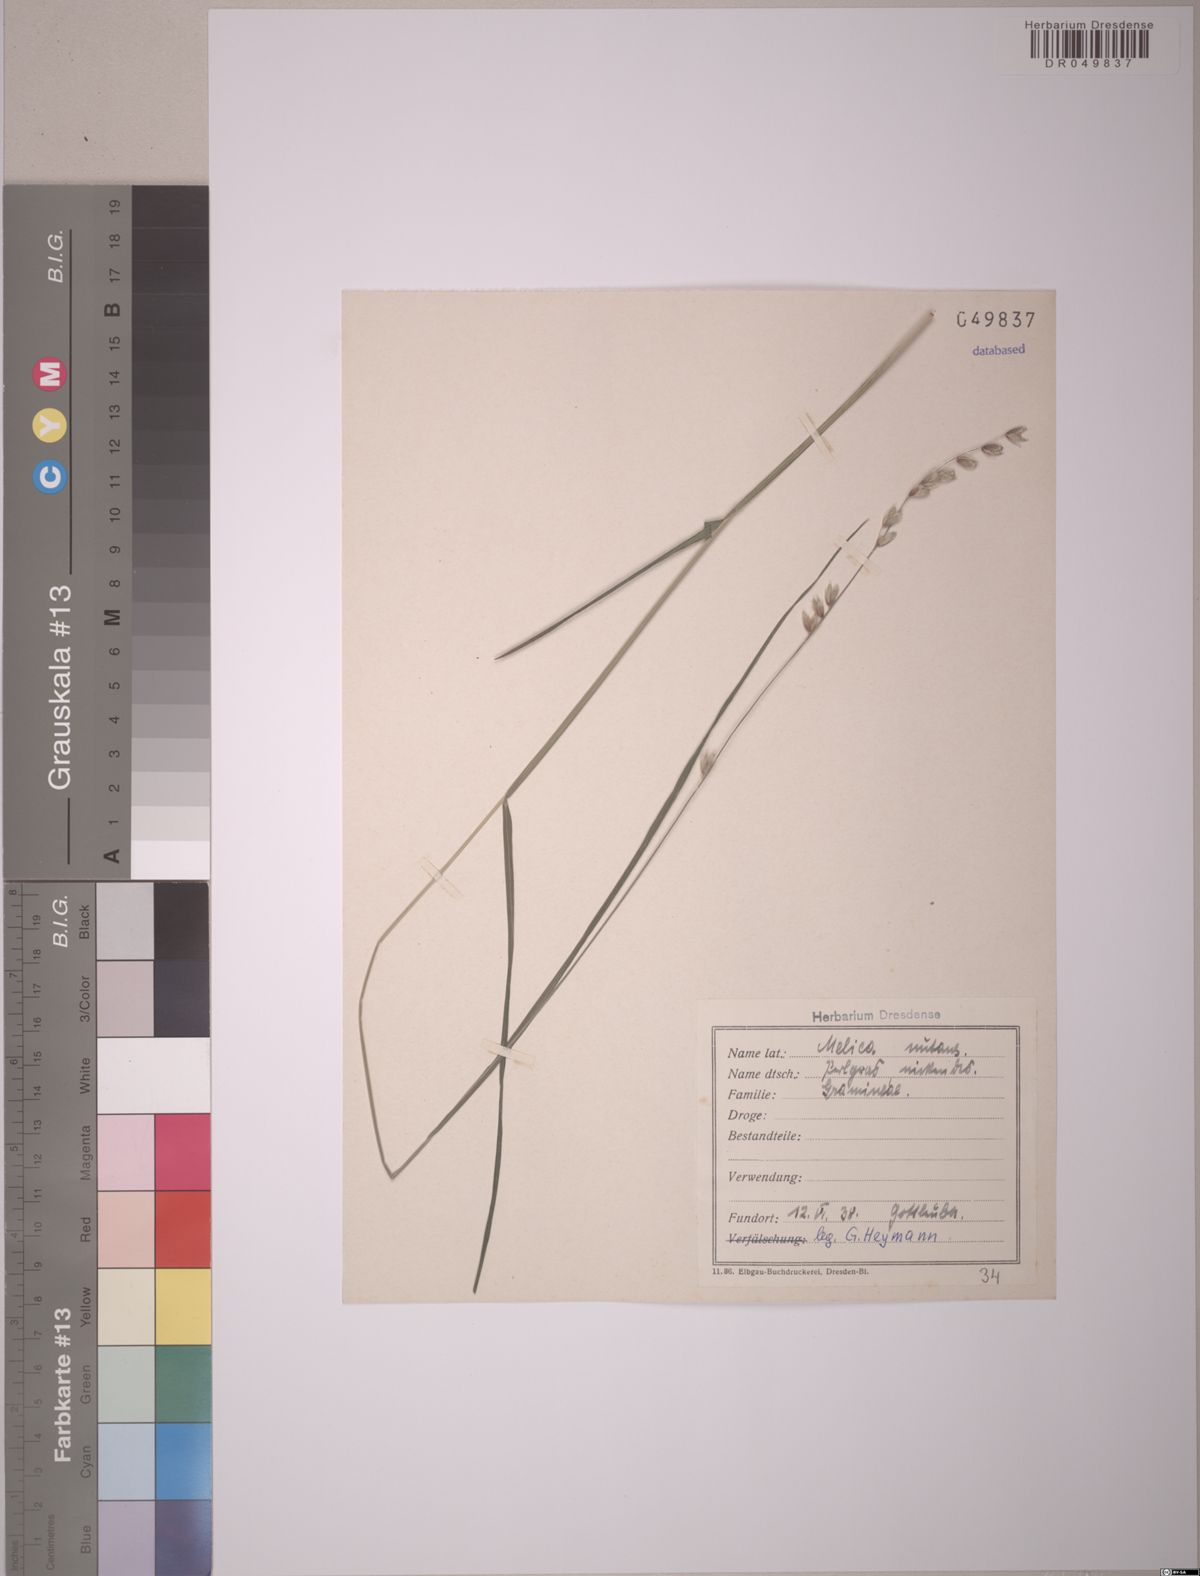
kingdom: Plantae
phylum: Tracheophyta
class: Liliopsida
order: Poales
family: Poaceae
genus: Melica
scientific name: Melica nutans
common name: Mountain melick
